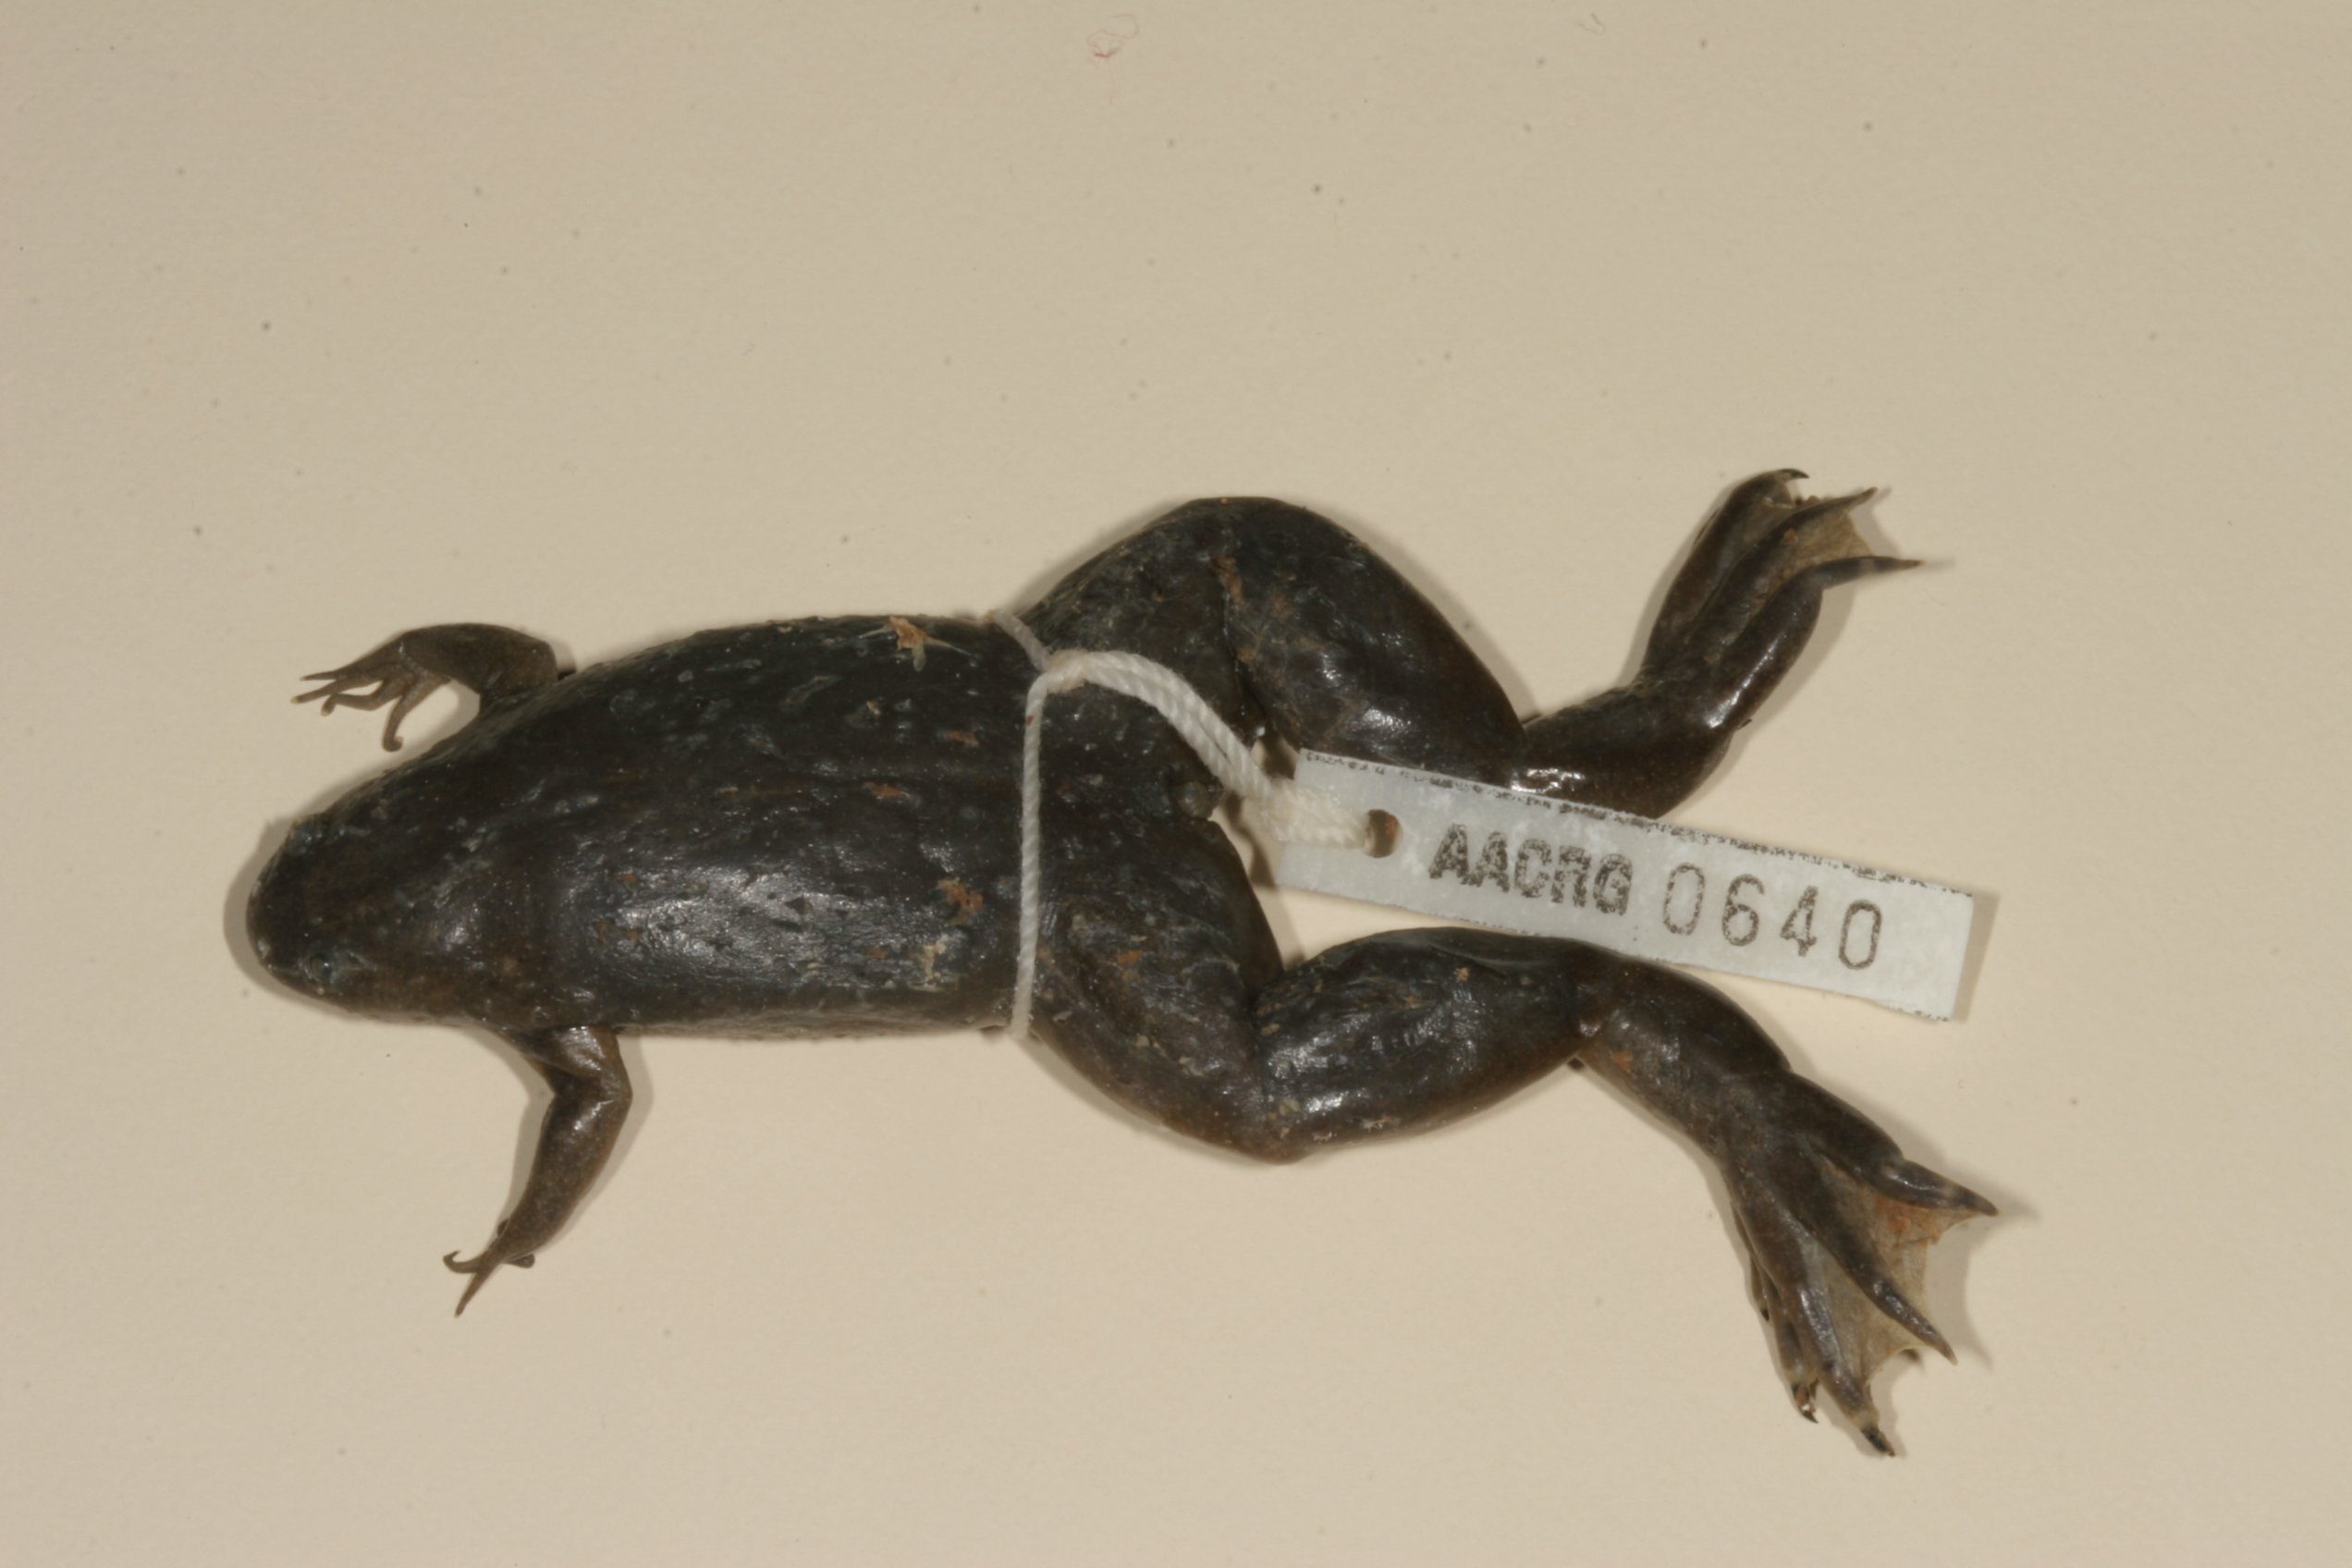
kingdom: Animalia
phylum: Chordata
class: Amphibia
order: Anura
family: Pipidae
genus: Xenopus
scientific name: Xenopus tropicalis
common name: Forest clawed frog
